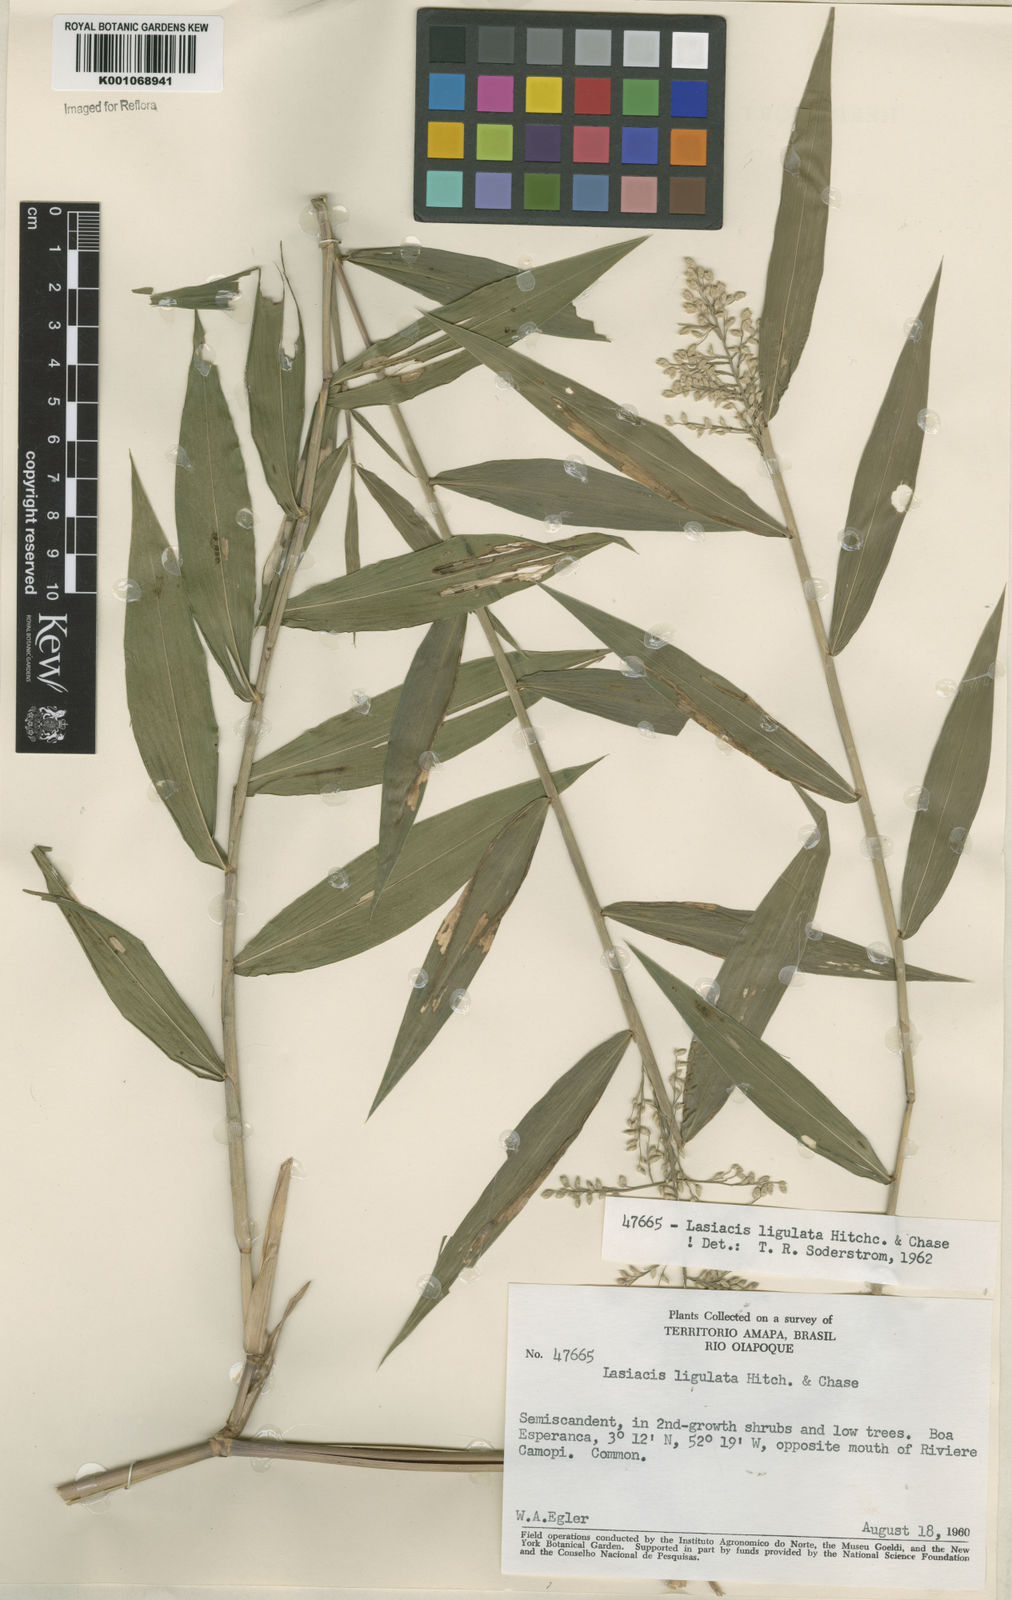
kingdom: Plantae
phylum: Tracheophyta
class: Liliopsida
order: Poales
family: Poaceae
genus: Lasiacis
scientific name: Lasiacis ligulata
